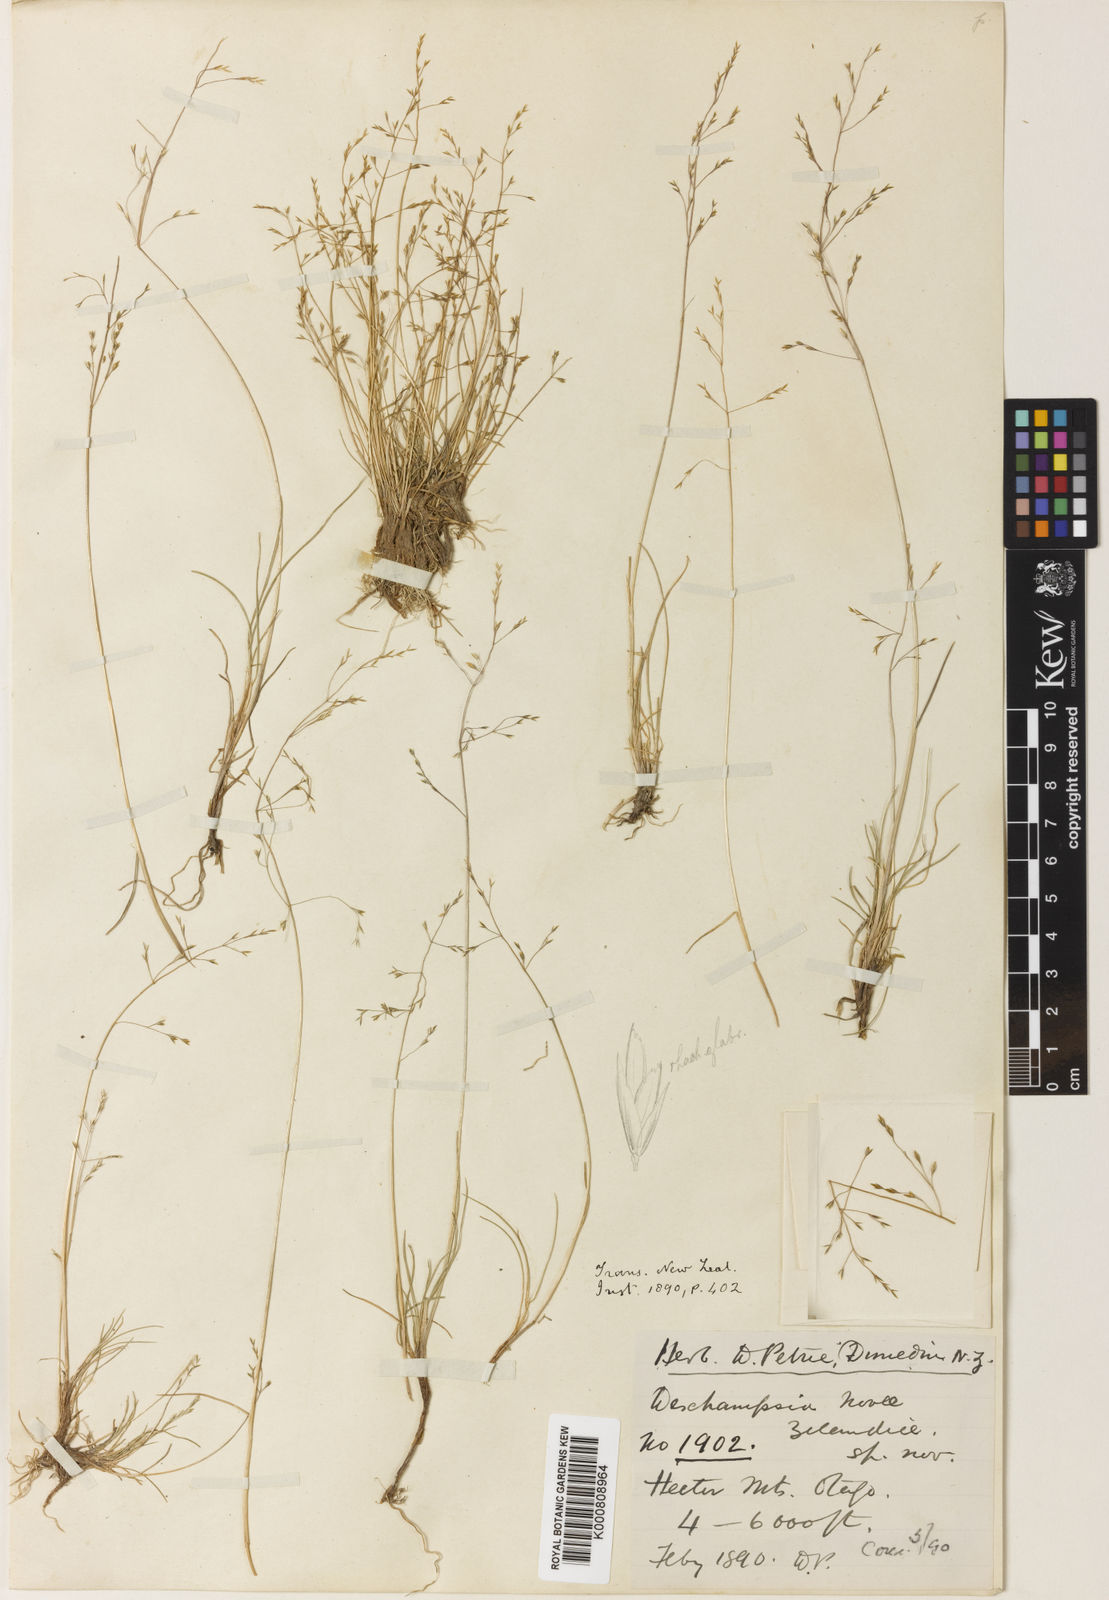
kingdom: Plantae
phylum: Tracheophyta
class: Liliopsida
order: Poales
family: Poaceae
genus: Deschampsia
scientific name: Deschampsia chapmanii
